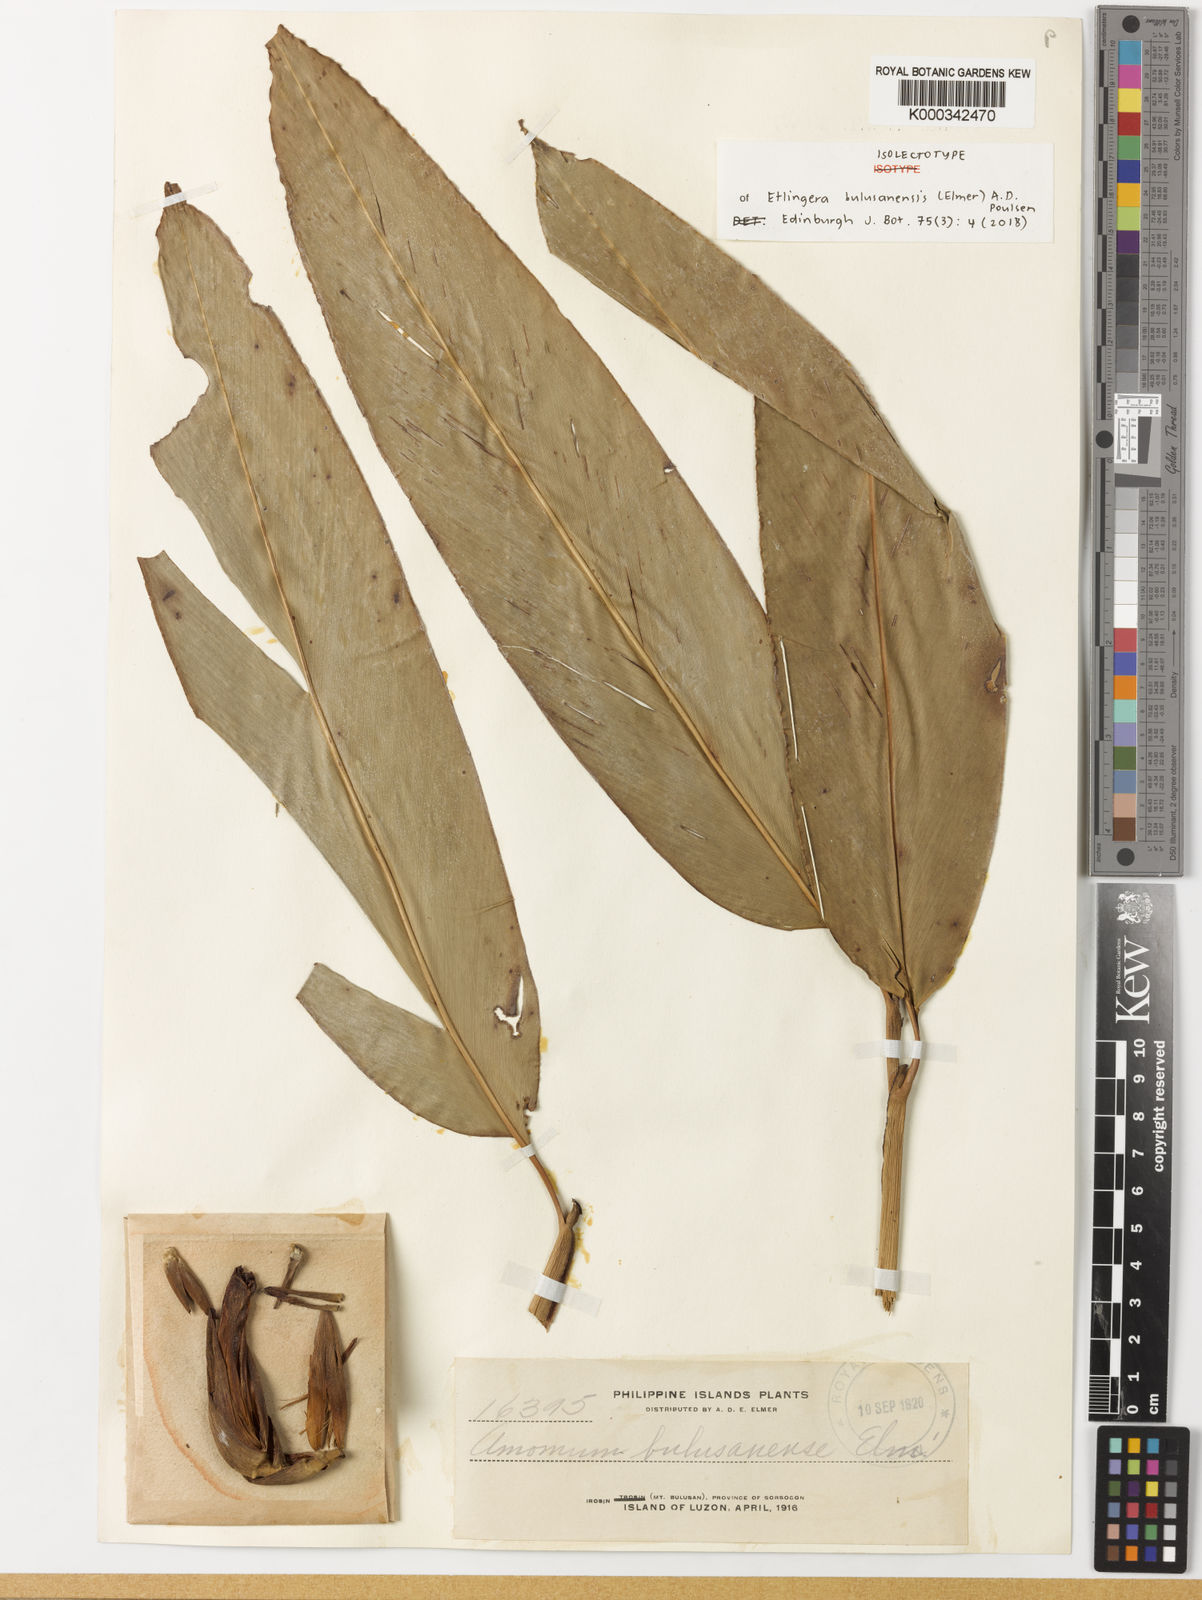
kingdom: Plantae
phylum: Tracheophyta
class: Liliopsida
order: Zingiberales
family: Zingiberaceae
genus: Etlingera
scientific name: Etlingera bulusanensis
